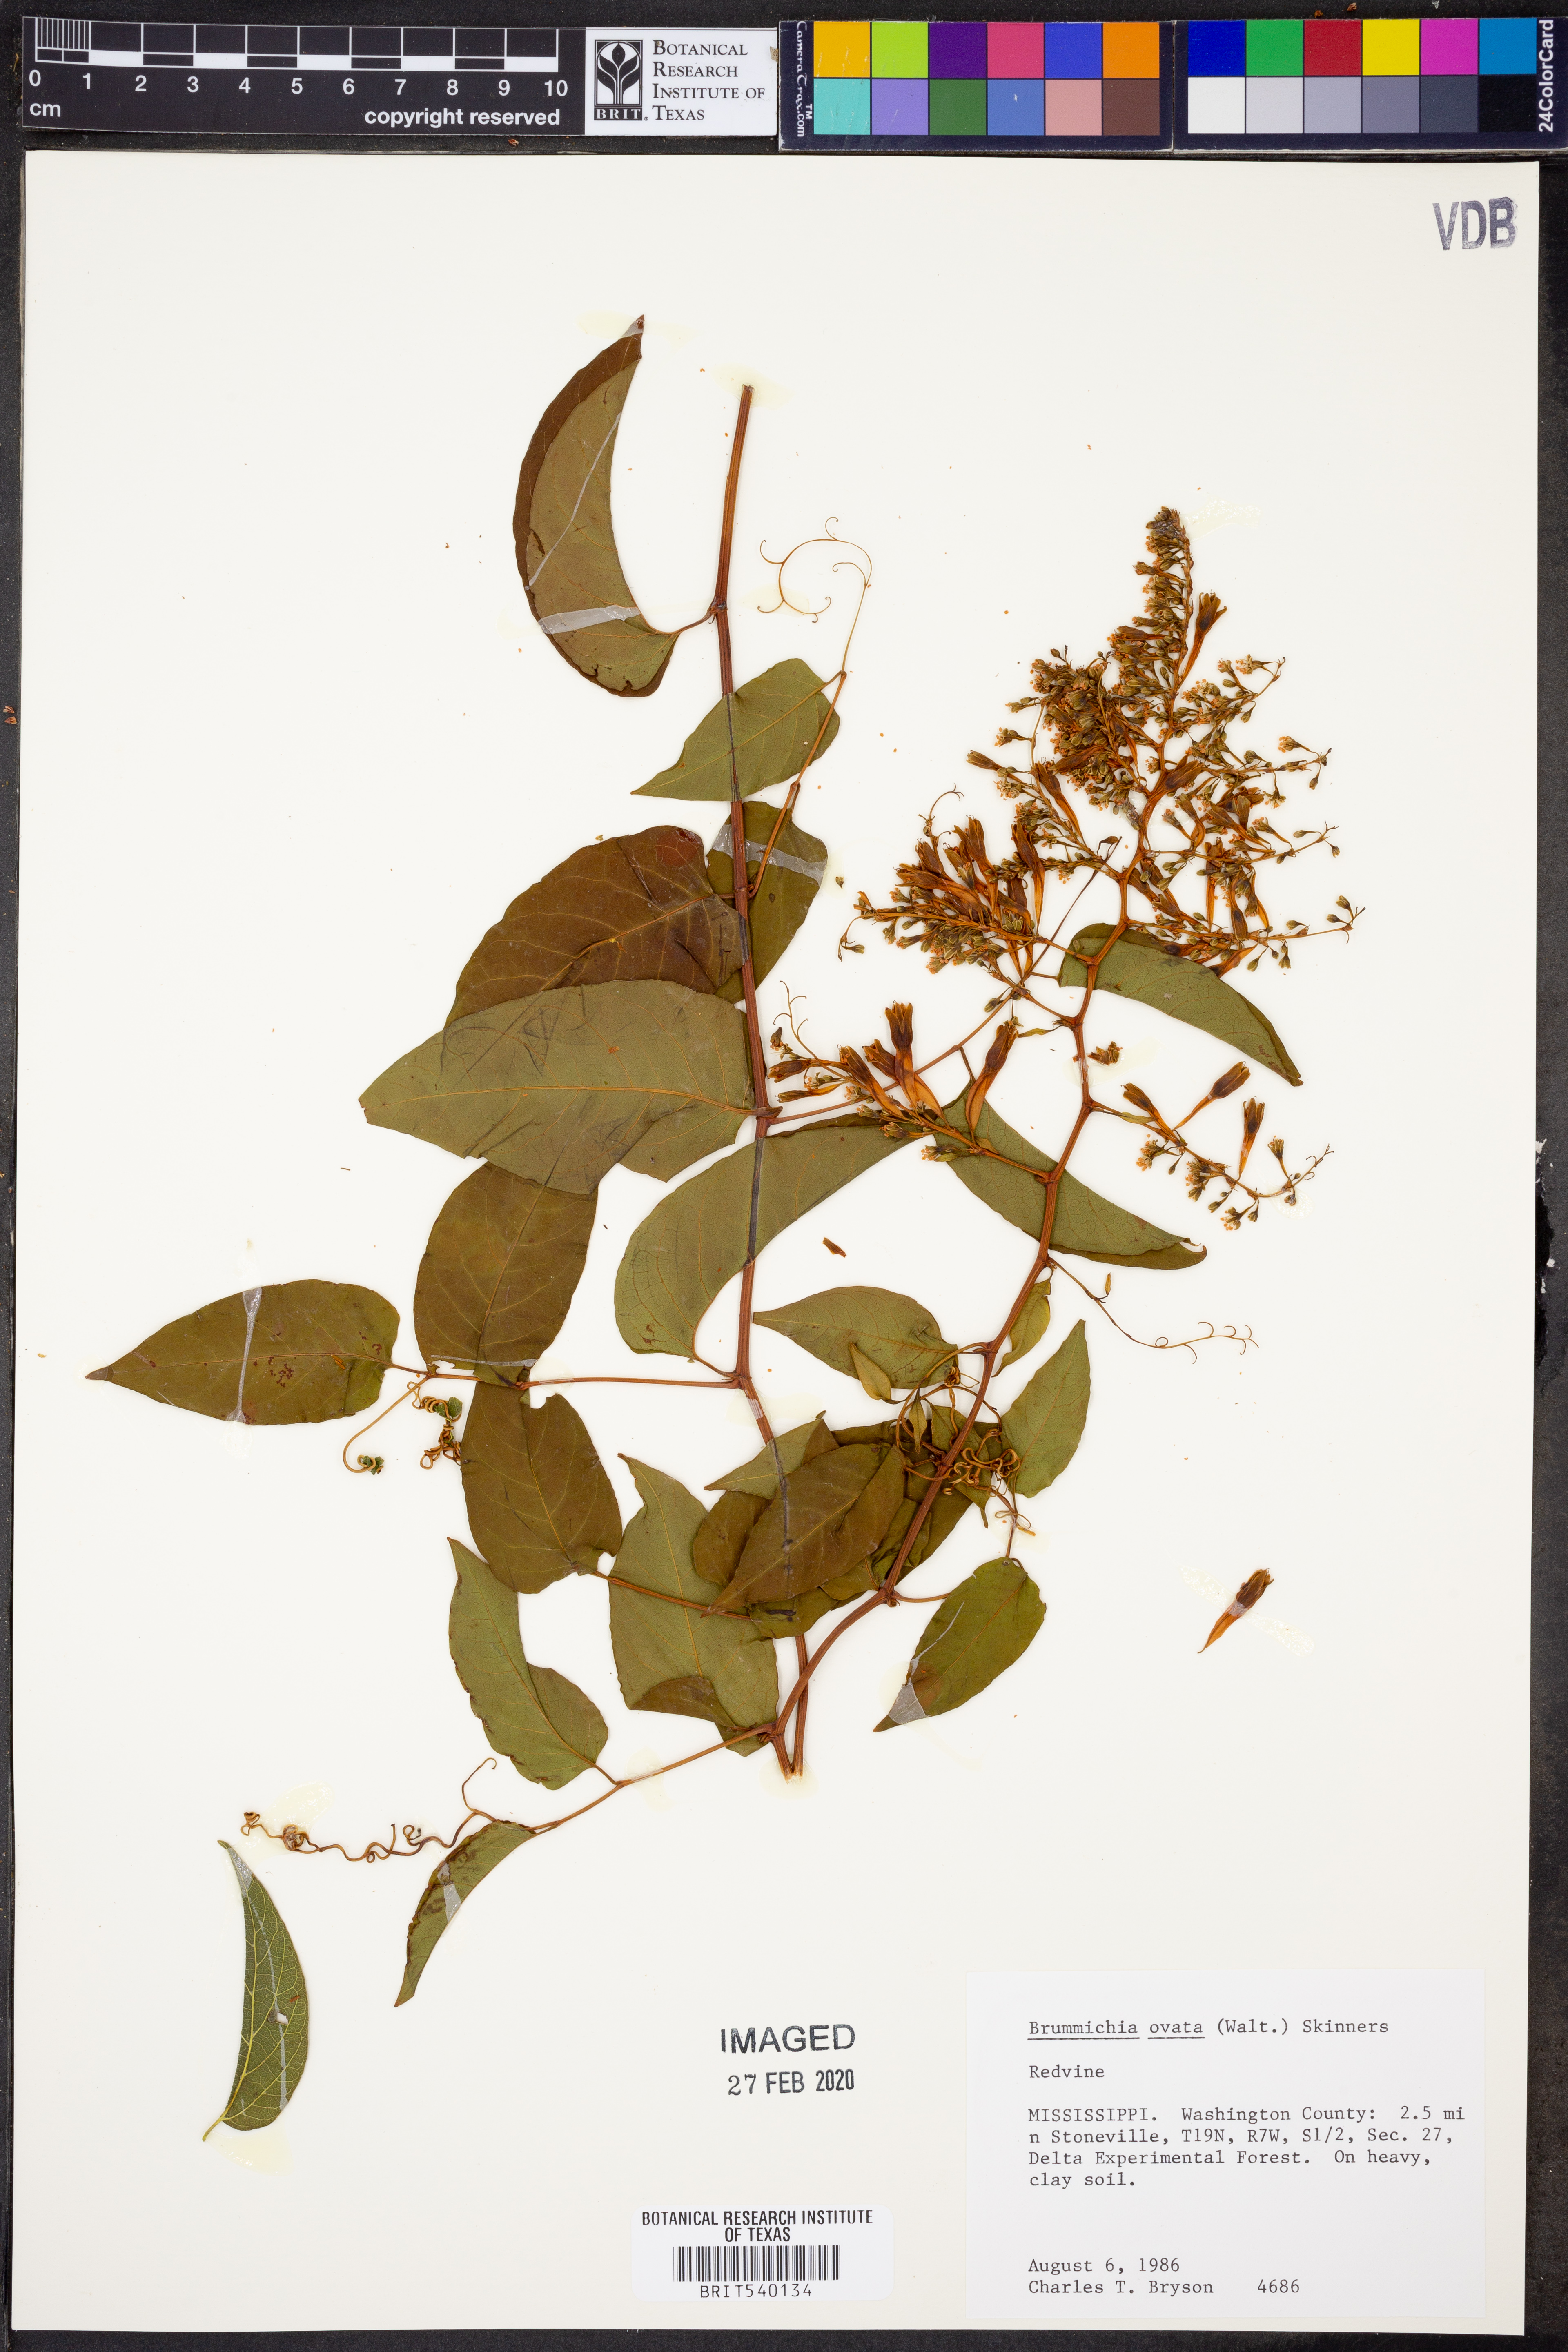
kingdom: Plantae
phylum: Tracheophyta
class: Magnoliopsida
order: Caryophyllales
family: Polygonaceae
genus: Brunnichia
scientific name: Brunnichia ovata
